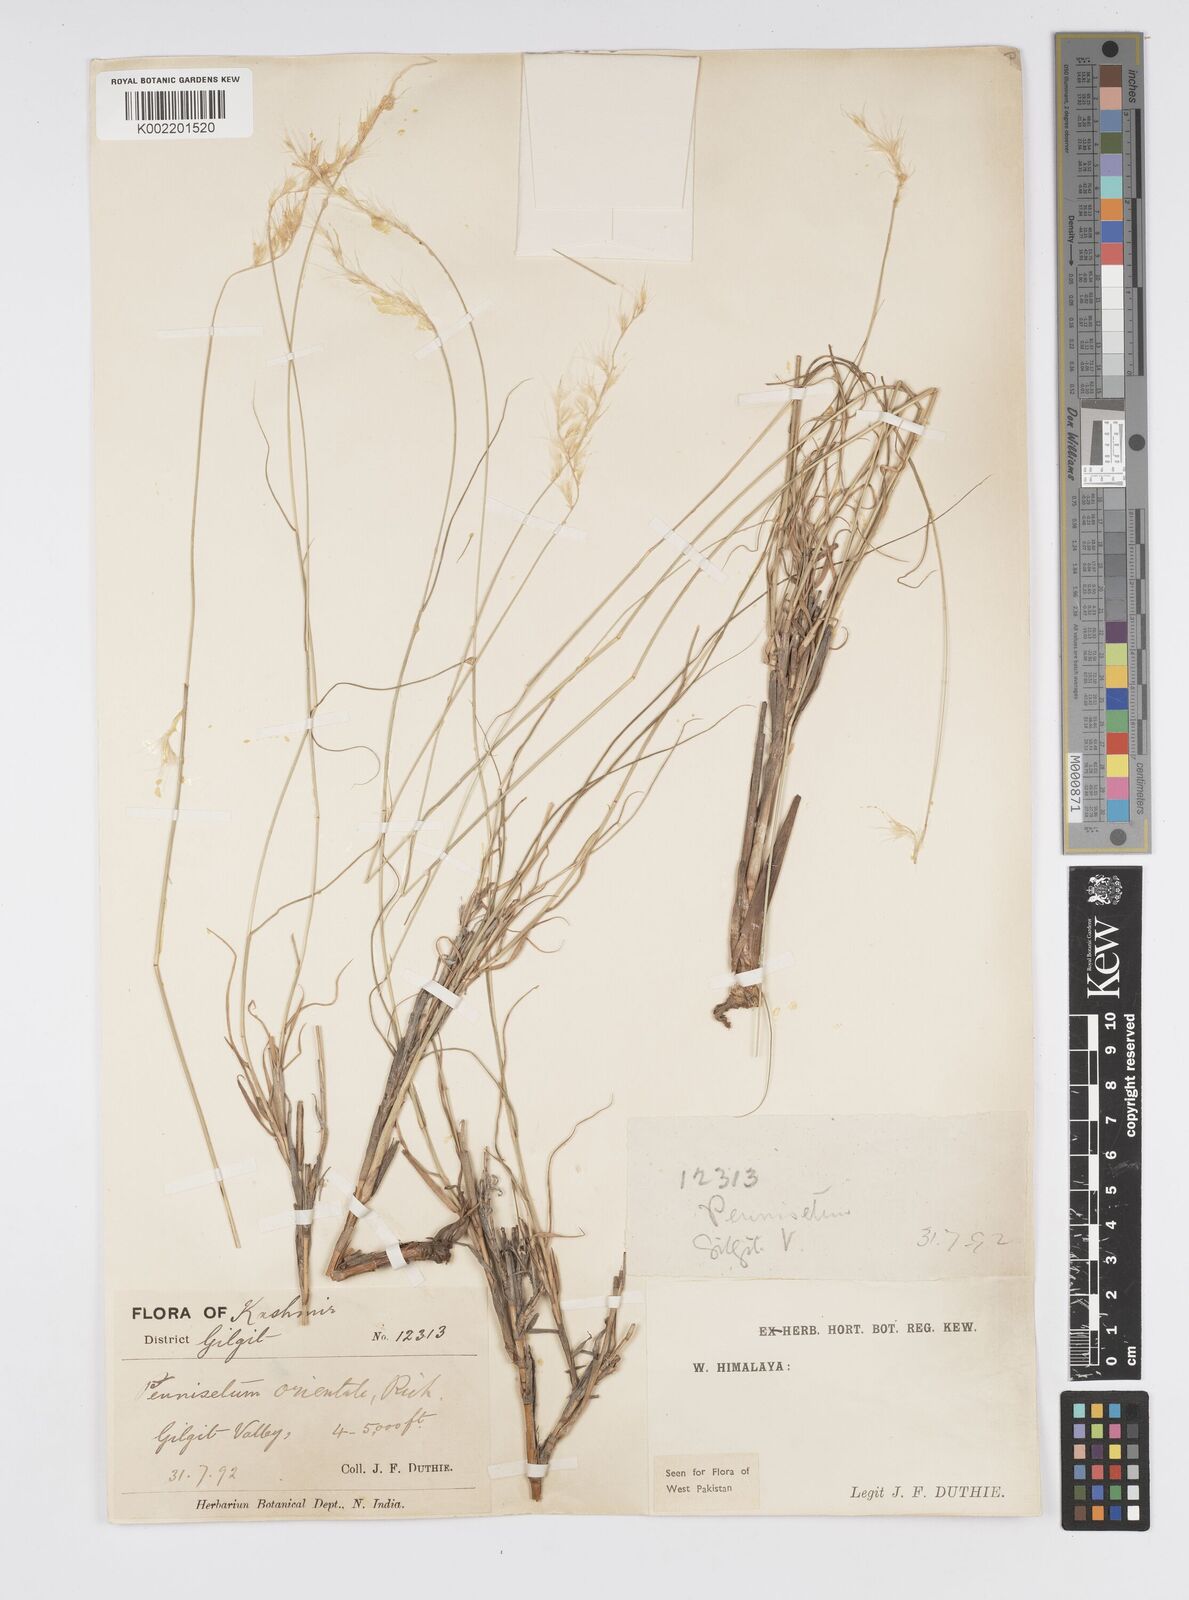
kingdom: Plantae
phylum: Tracheophyta
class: Liliopsida
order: Poales
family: Poaceae
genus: Cenchrus
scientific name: Cenchrus orientalis
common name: Oriental fountain grass
